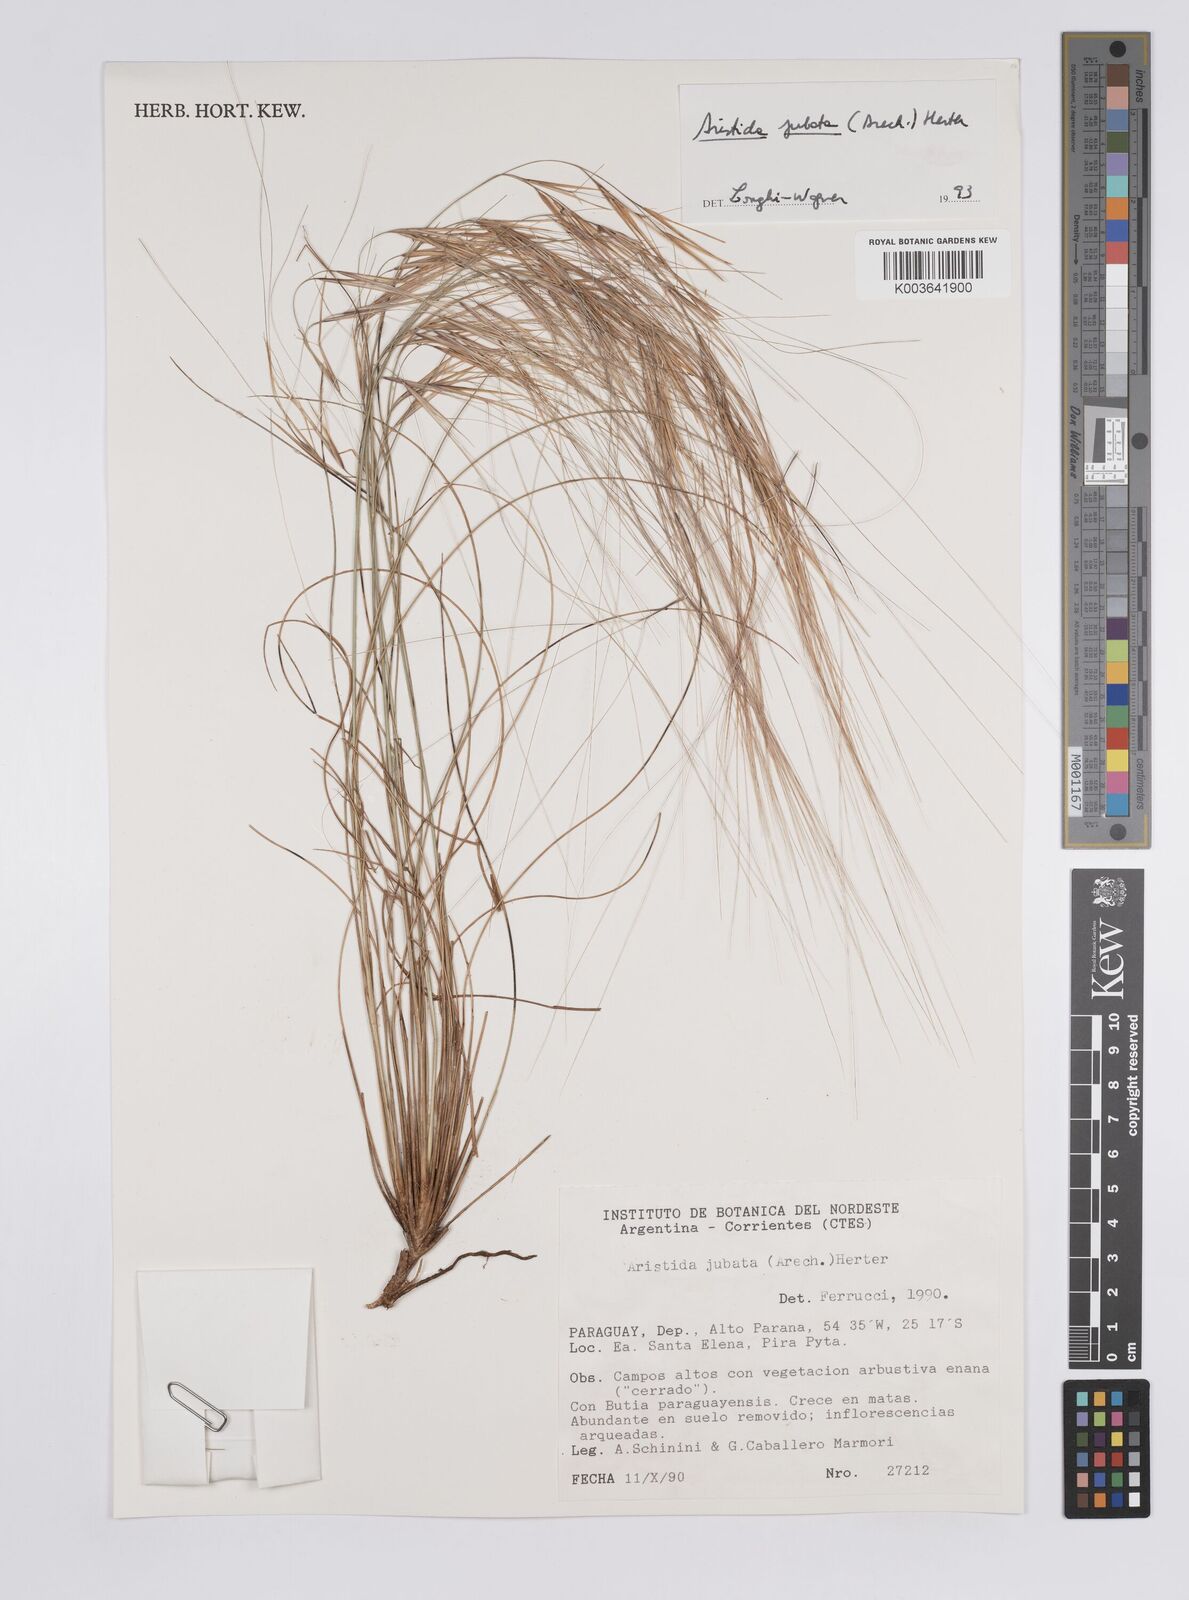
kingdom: Plantae
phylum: Tracheophyta
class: Liliopsida
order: Poales
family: Poaceae
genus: Aristida
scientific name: Aristida jubata
